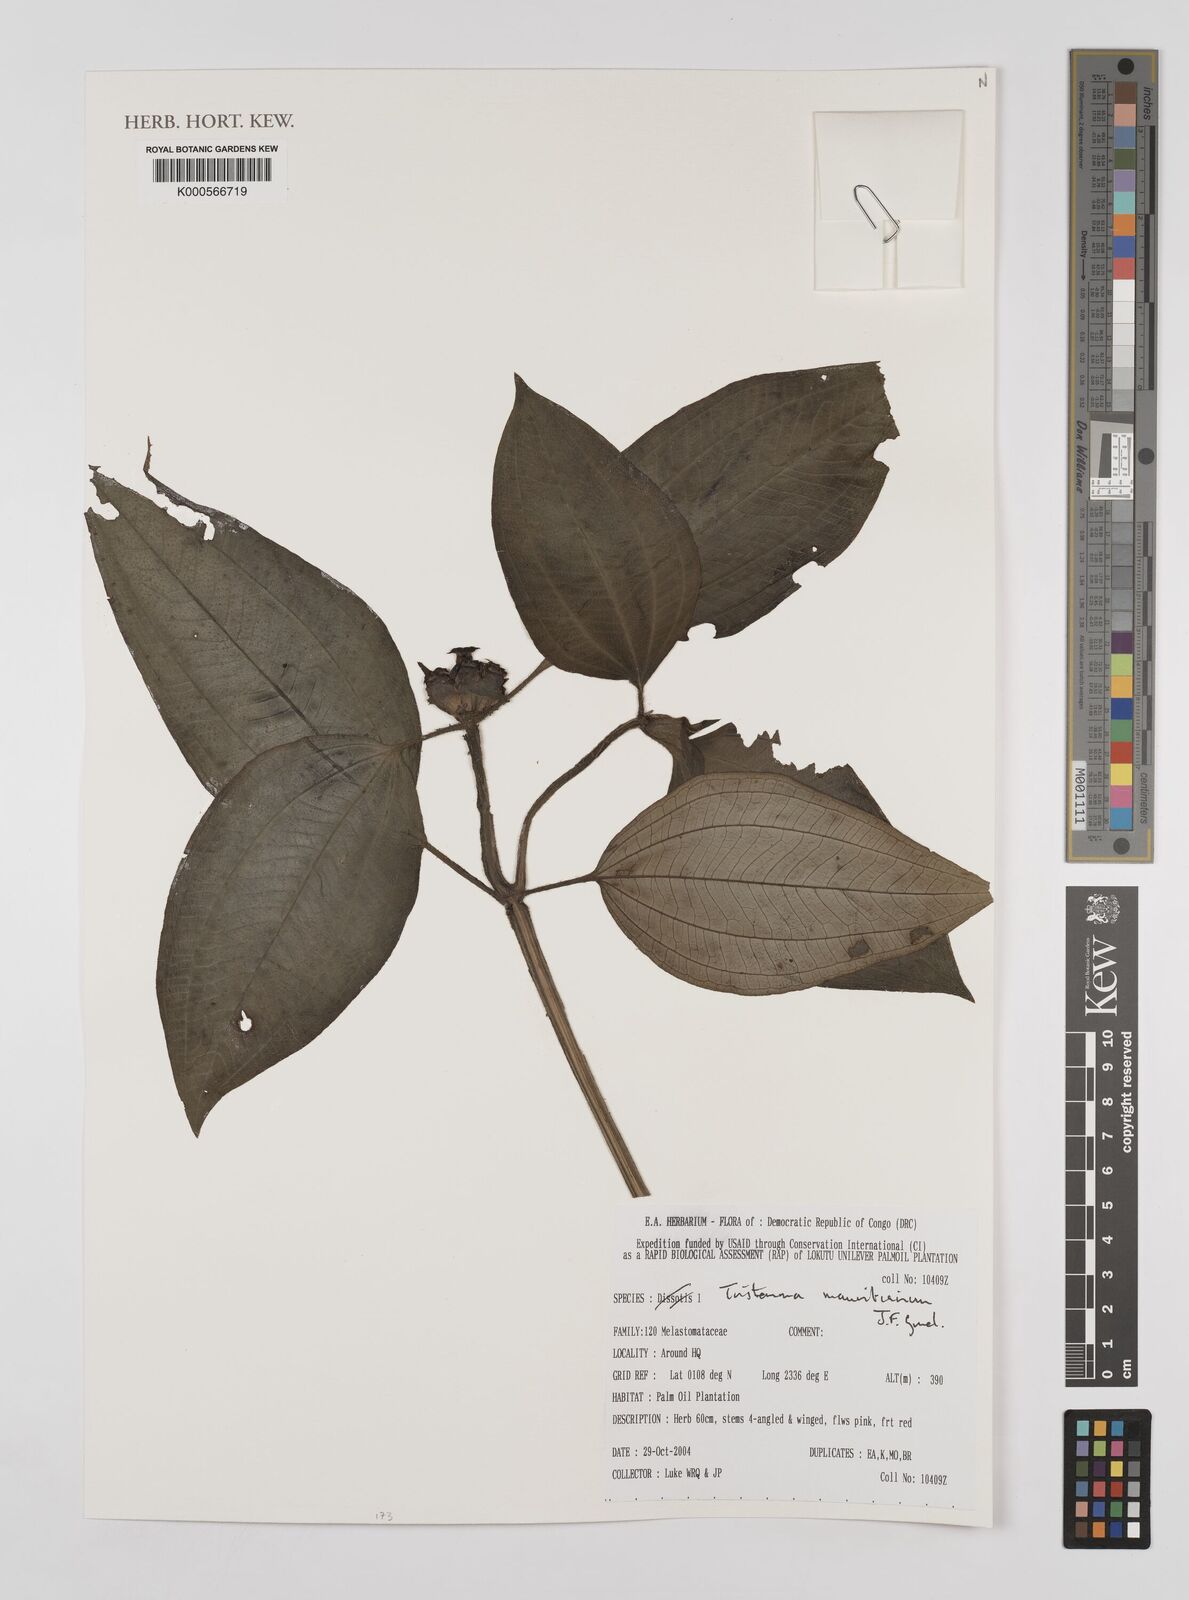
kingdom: Plantae
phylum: Tracheophyta
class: Magnoliopsida
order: Myrtales
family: Melastomataceae
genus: Tristemma
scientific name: Tristemma mauritianum
